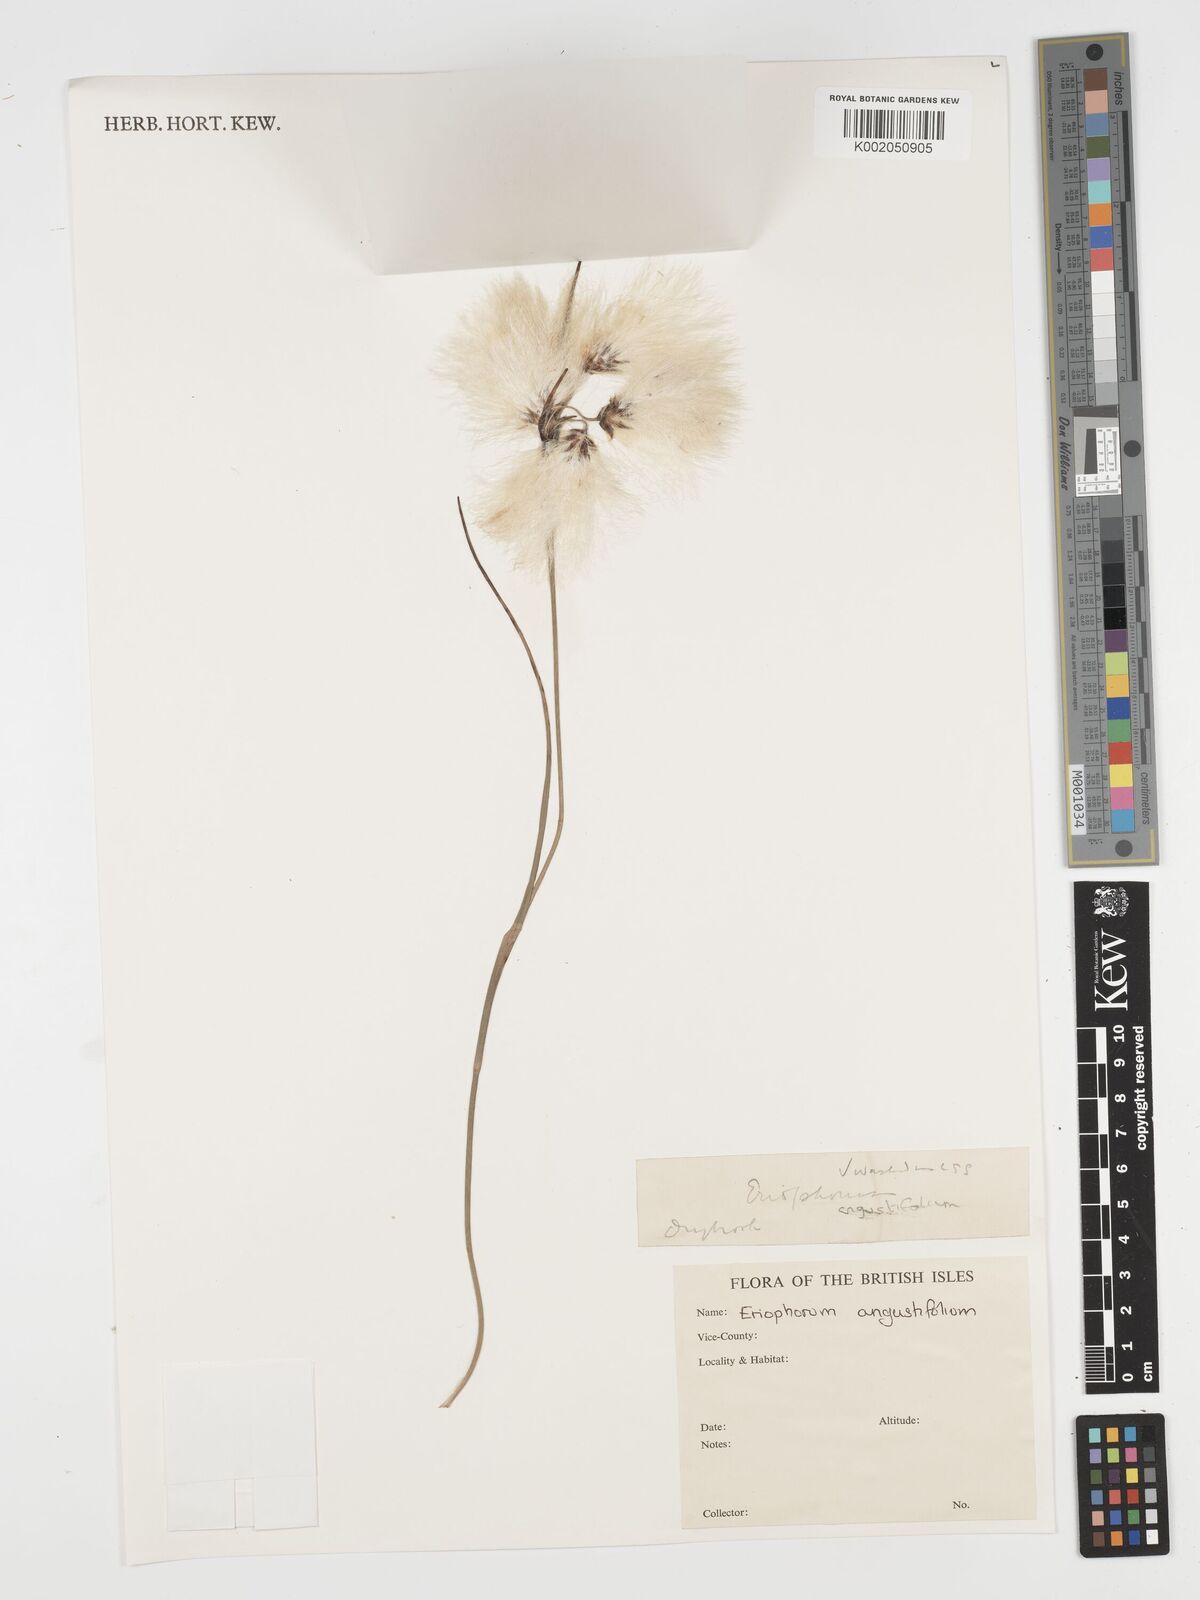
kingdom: Plantae
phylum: Tracheophyta
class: Liliopsida
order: Poales
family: Cyperaceae
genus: Eriophorum
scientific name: Eriophorum angustifolium
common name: Common cottongrass
